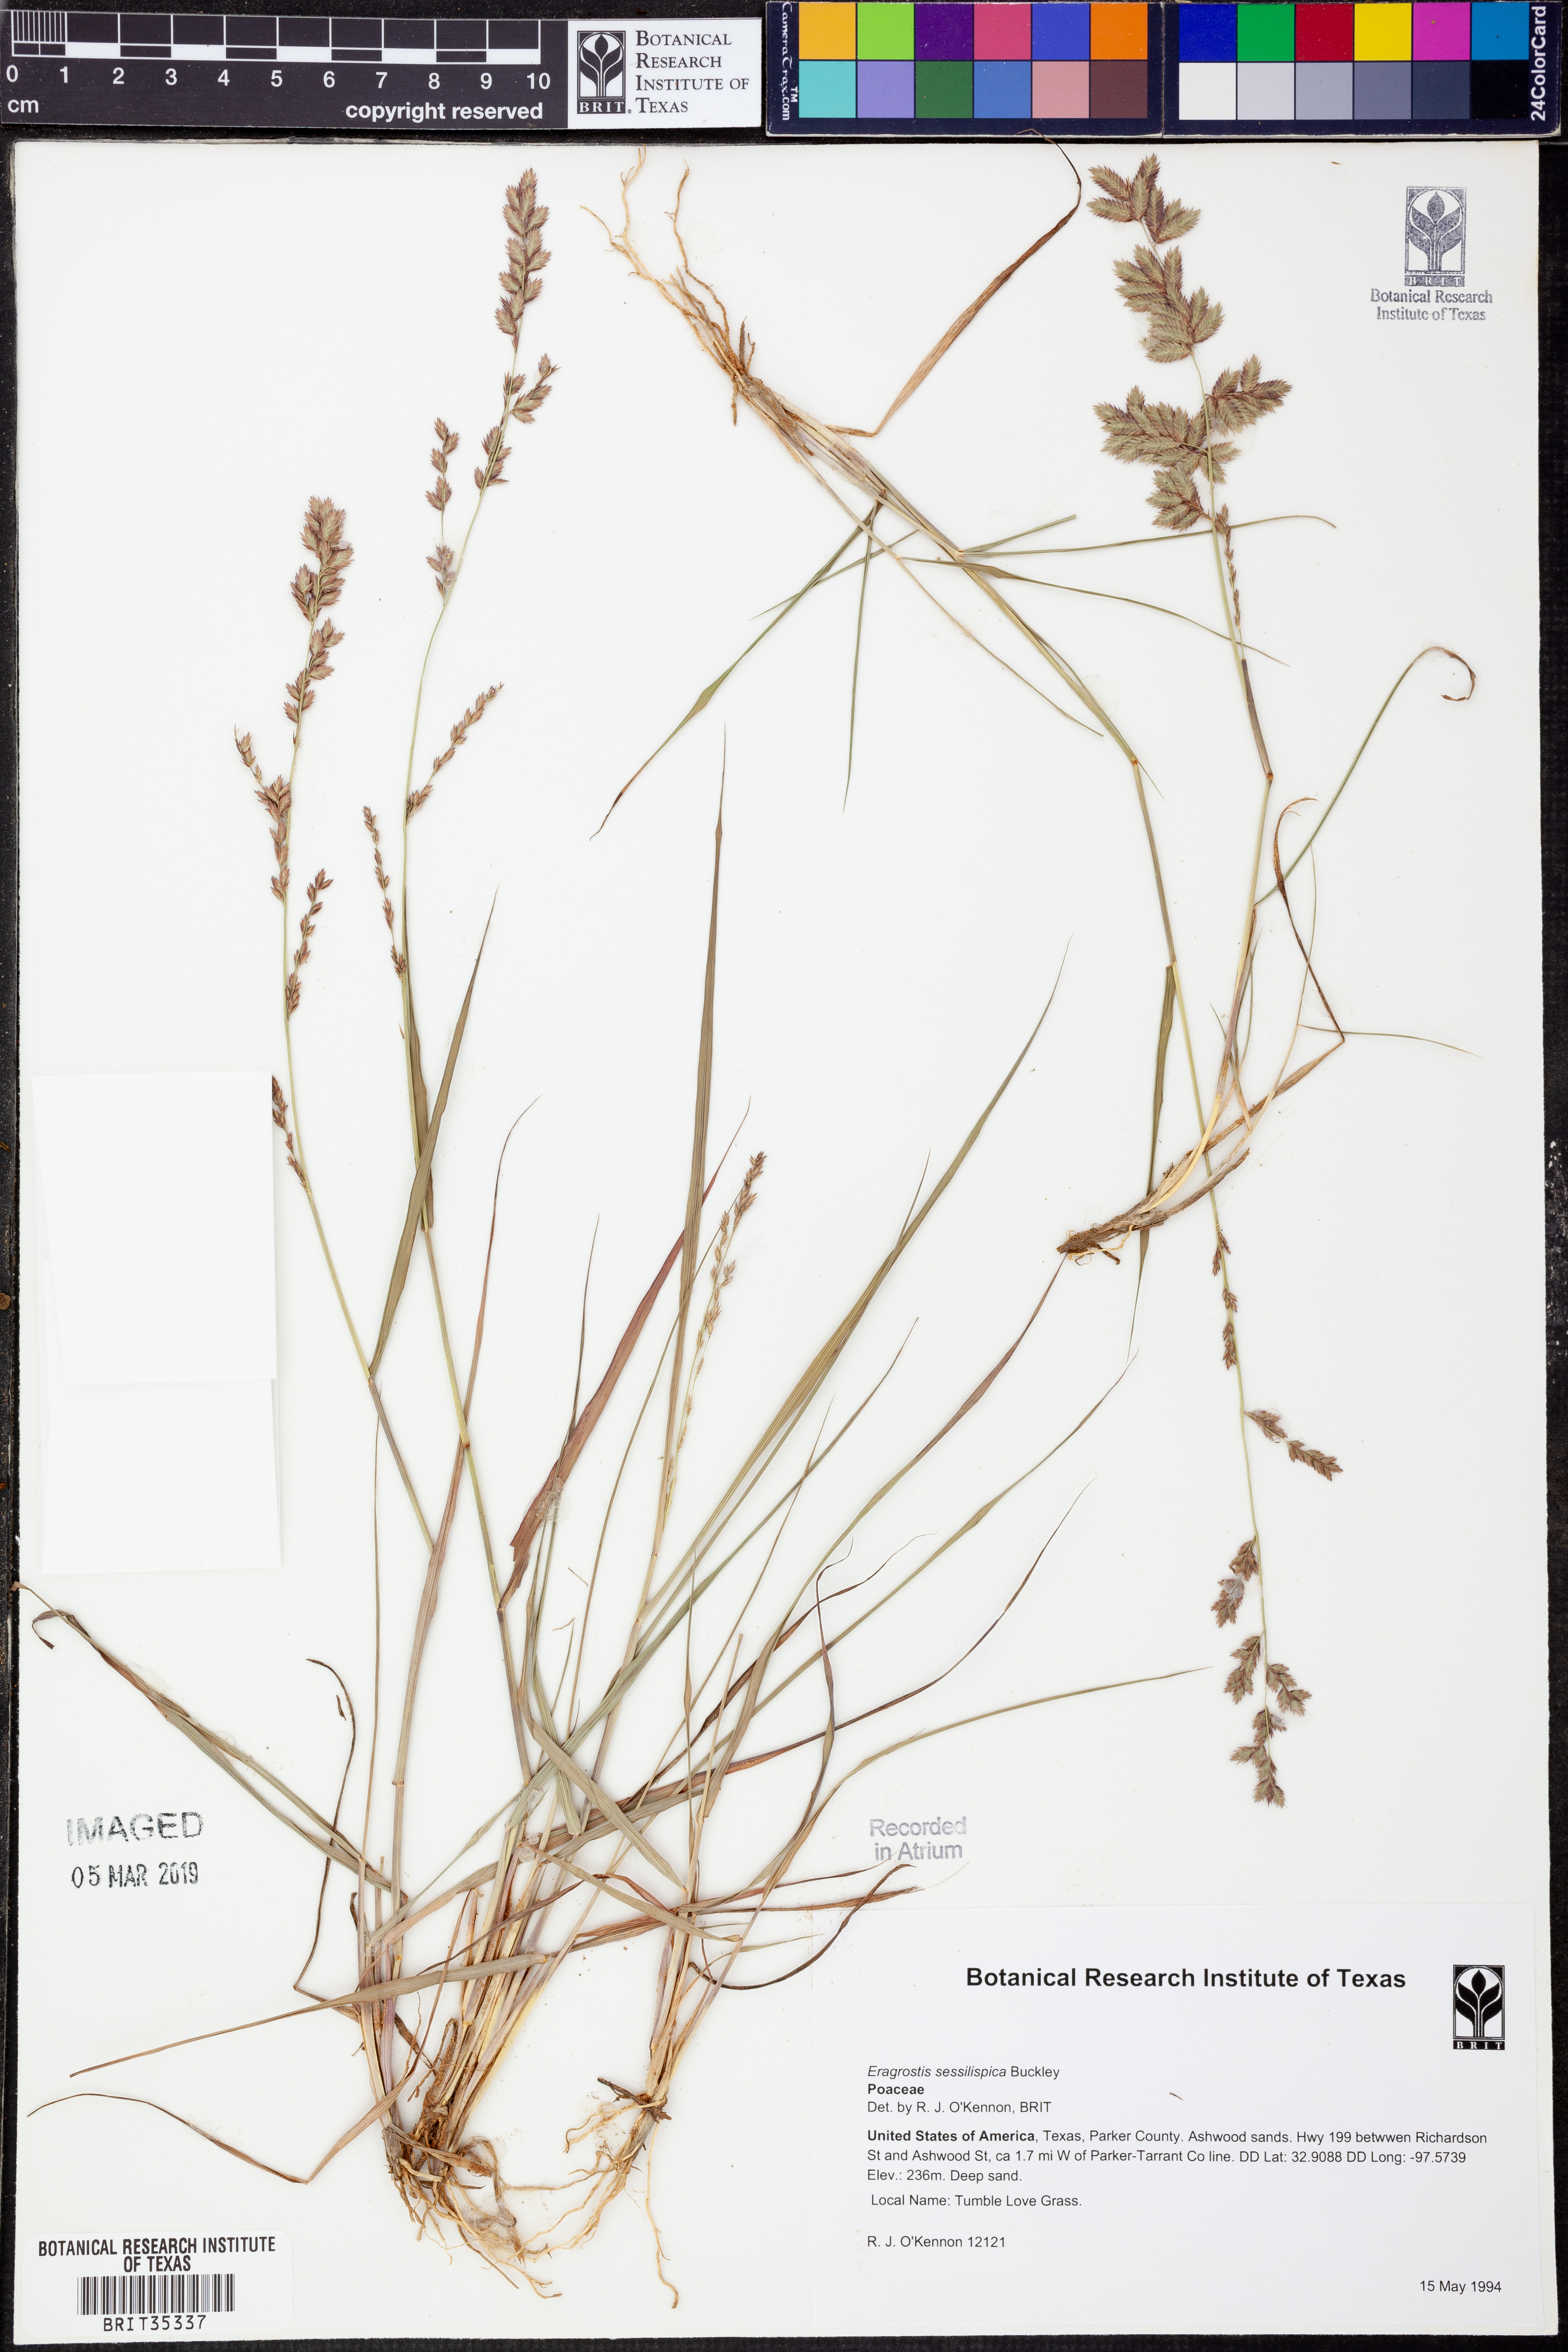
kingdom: Plantae
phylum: Tracheophyta
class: Liliopsida
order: Poales
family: Poaceae
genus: Eragrostis
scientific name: Eragrostis sessilispica
